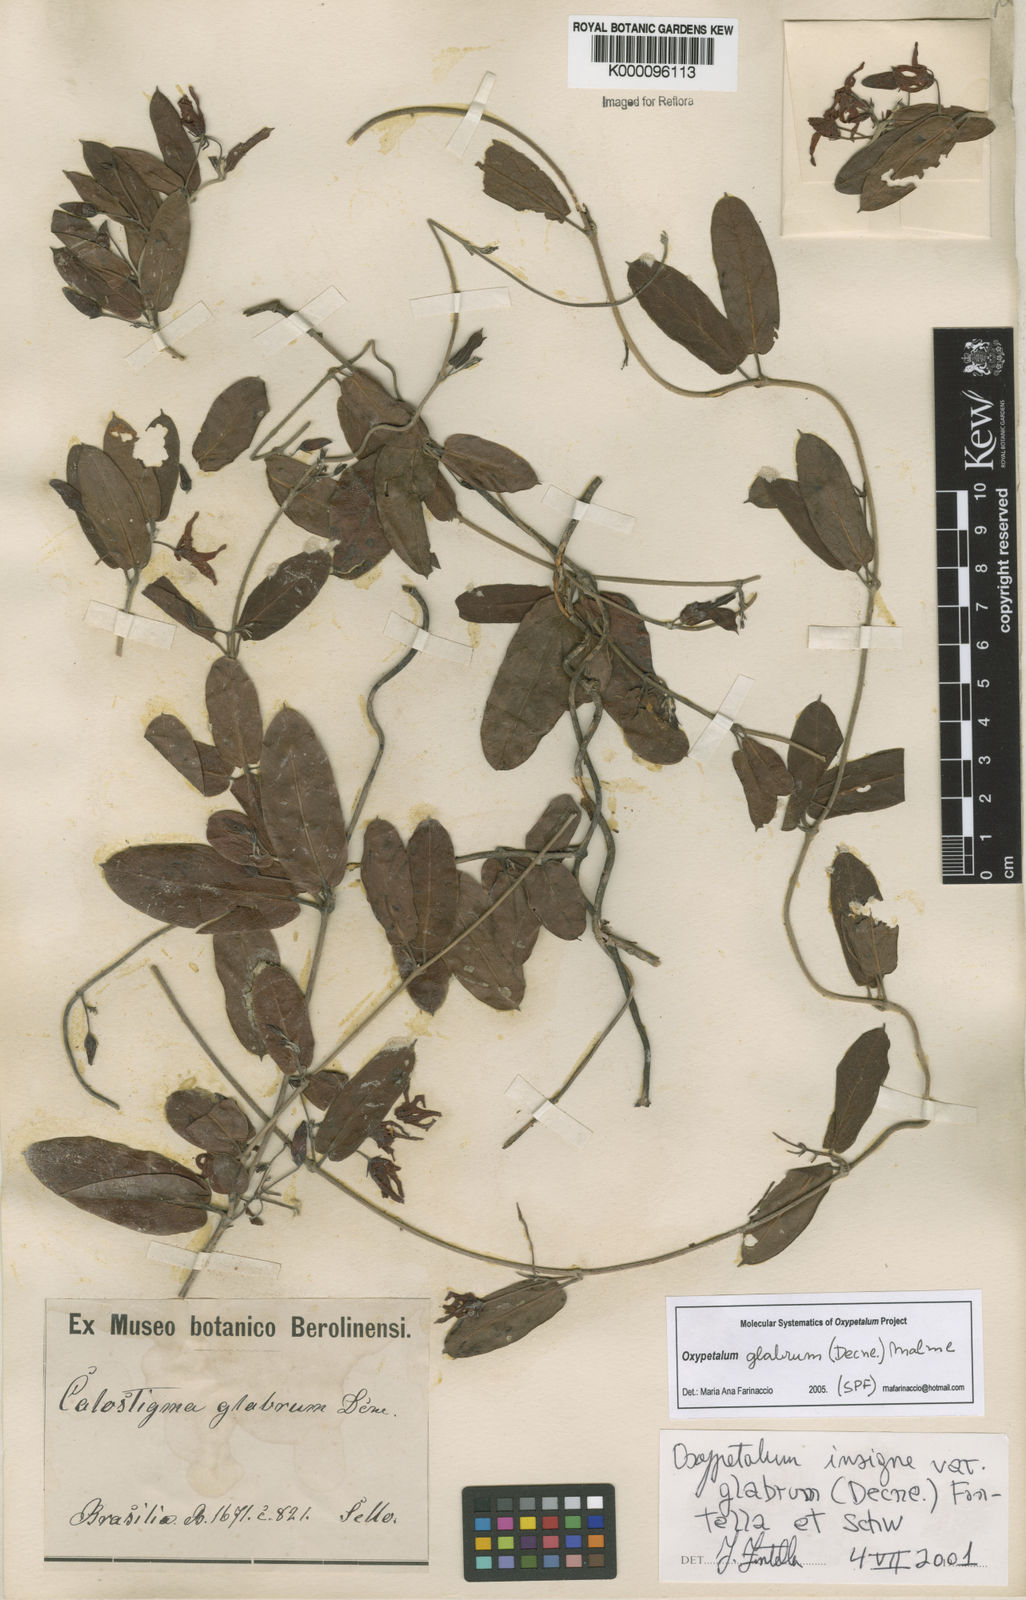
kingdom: Plantae
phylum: Tracheophyta
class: Magnoliopsida
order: Gentianales
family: Apocynaceae
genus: Oxypetalum
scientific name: Oxypetalum insigne
